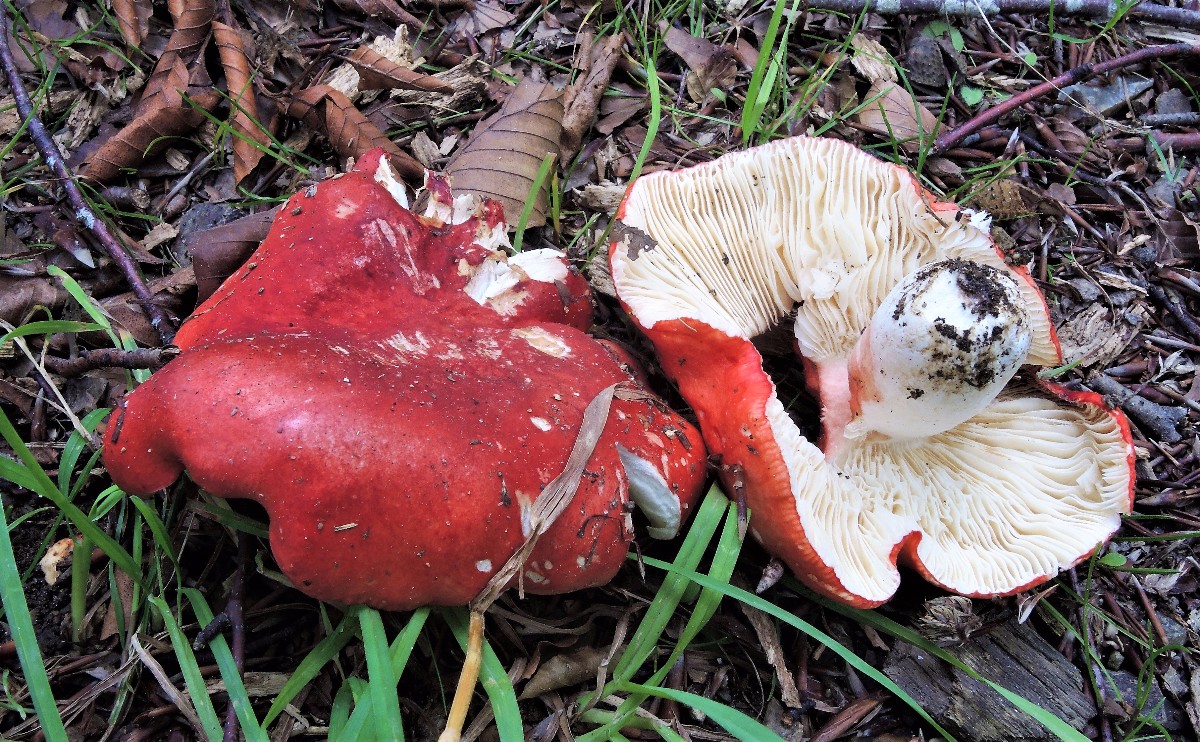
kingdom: Fungi
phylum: Basidiomycota
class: Agaricomycetes
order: Russulales
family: Russulaceae
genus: Russula
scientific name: Russula pseudointegra
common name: cinnoberrød skørhat
